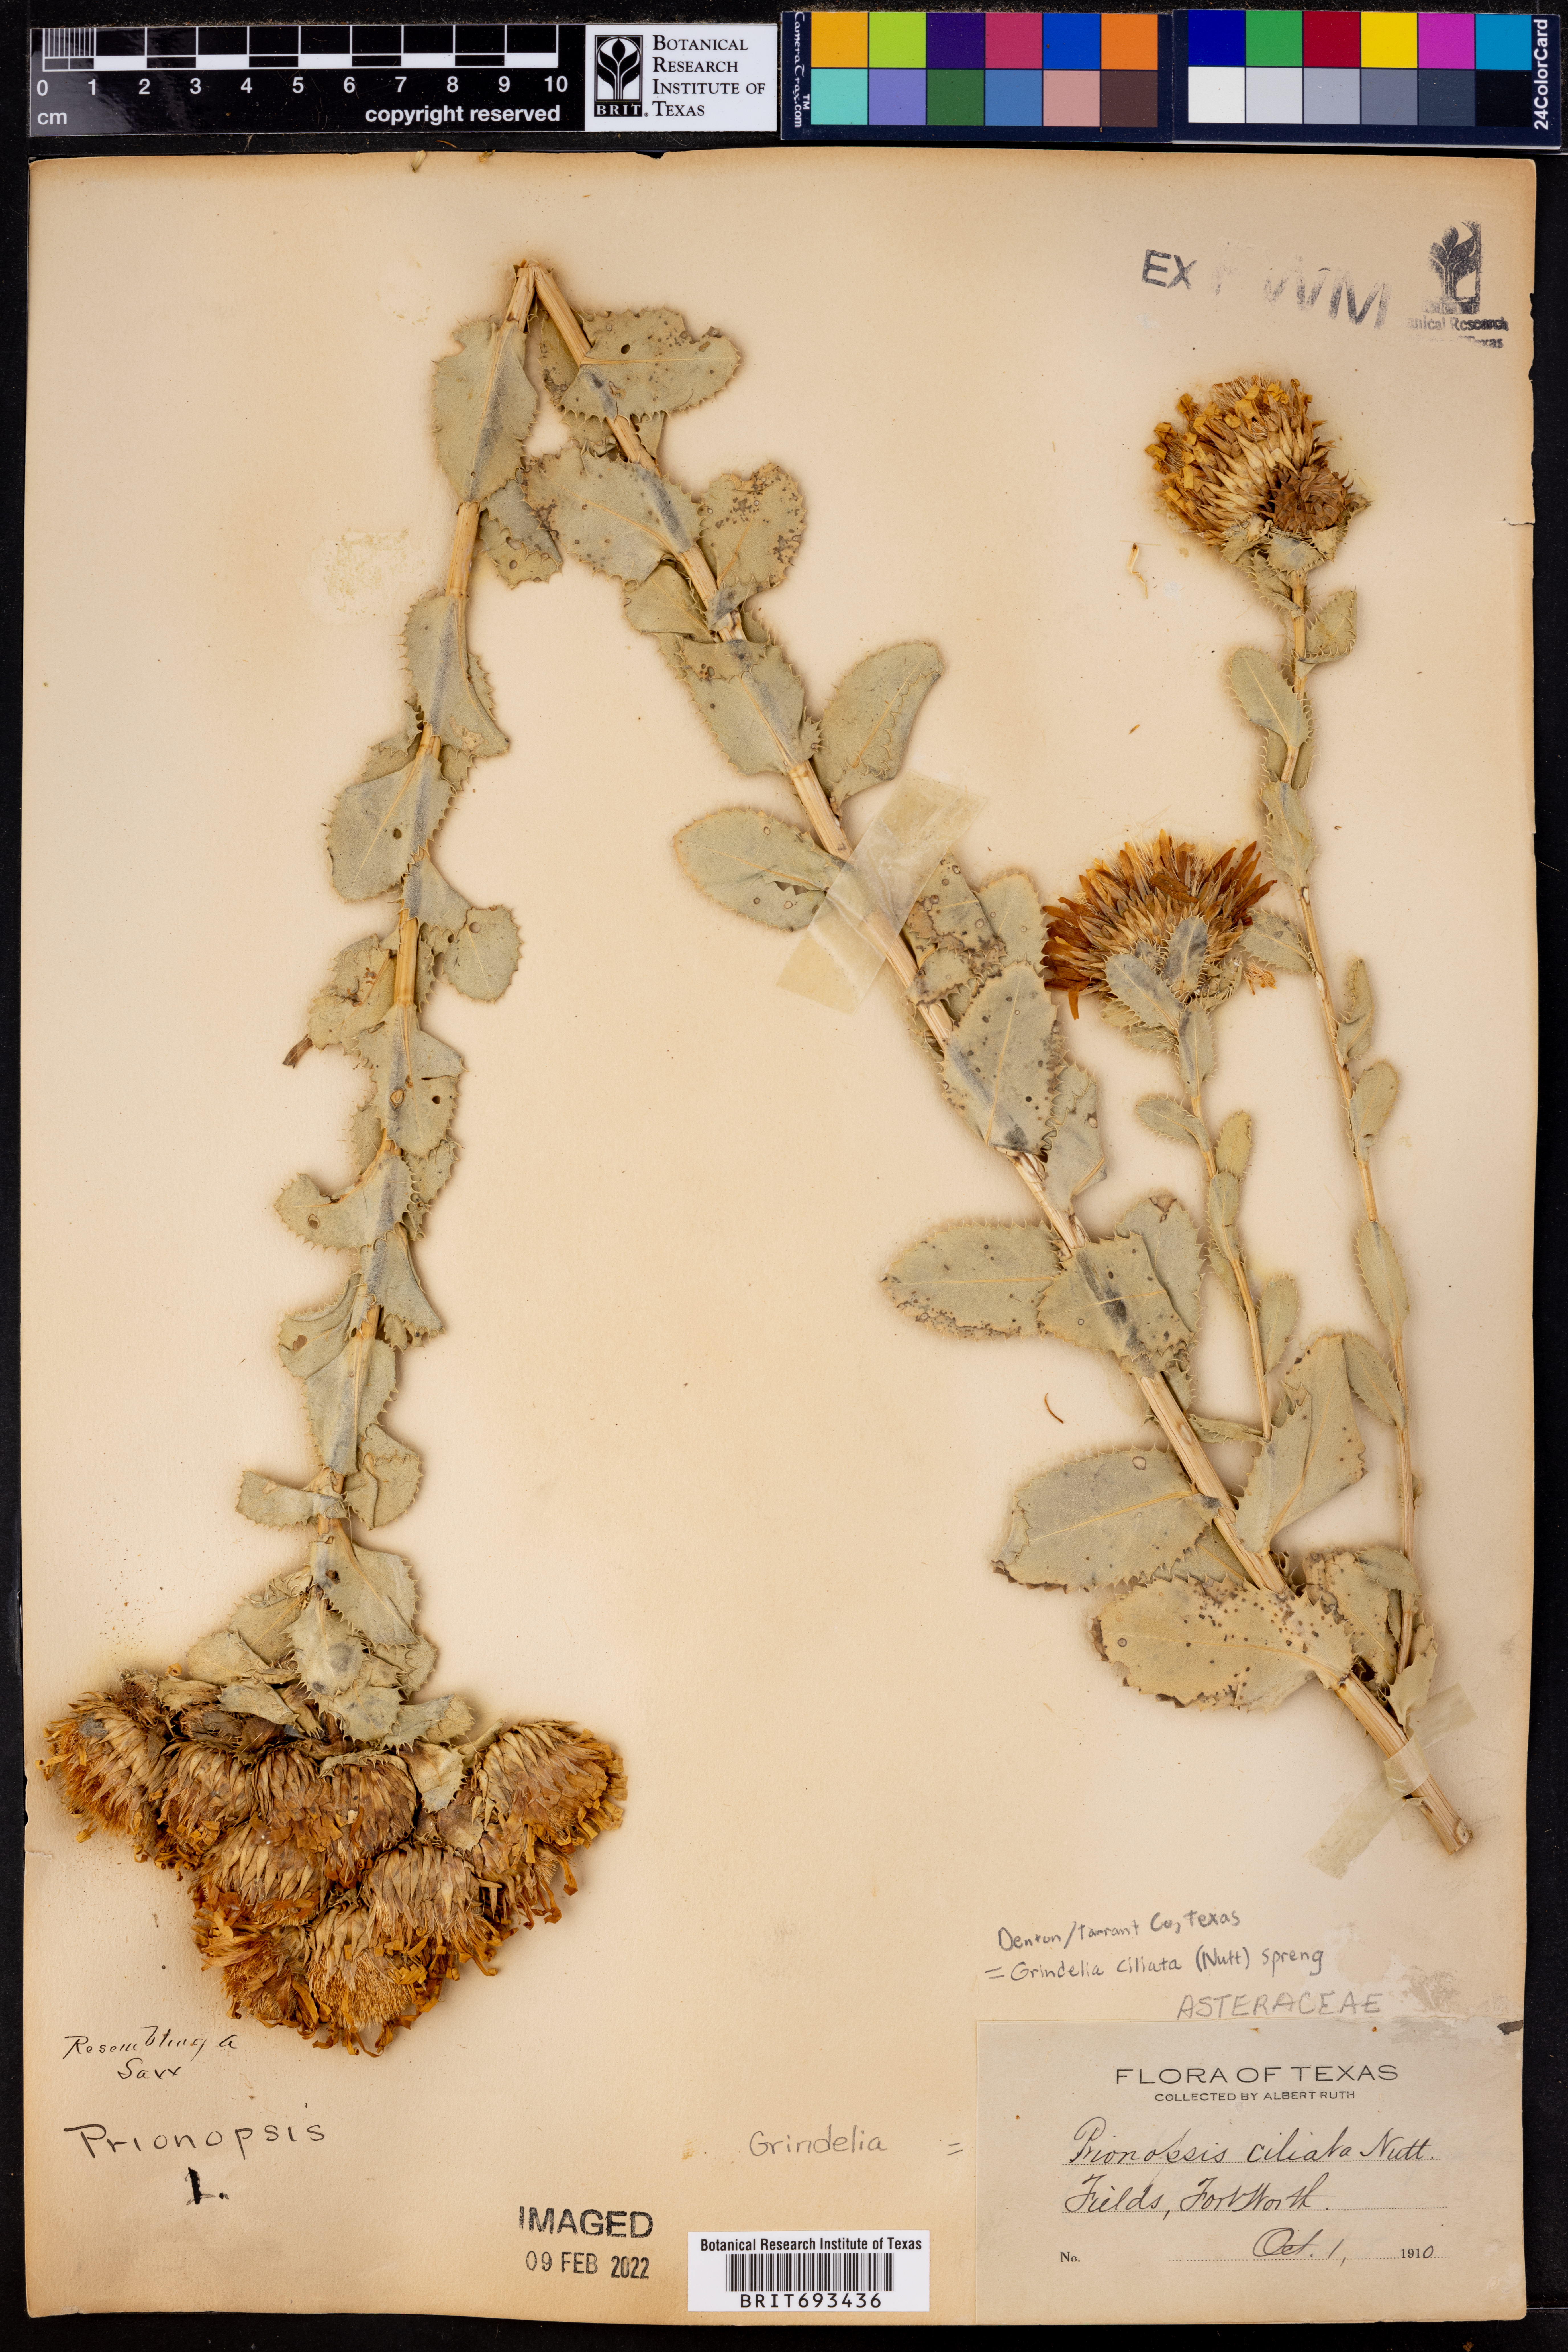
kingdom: Plantae
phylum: Tracheophyta
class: Magnoliopsida
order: Asterales
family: Asteraceae
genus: Grindelia
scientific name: Grindelia ciliata
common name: Goldenweed
